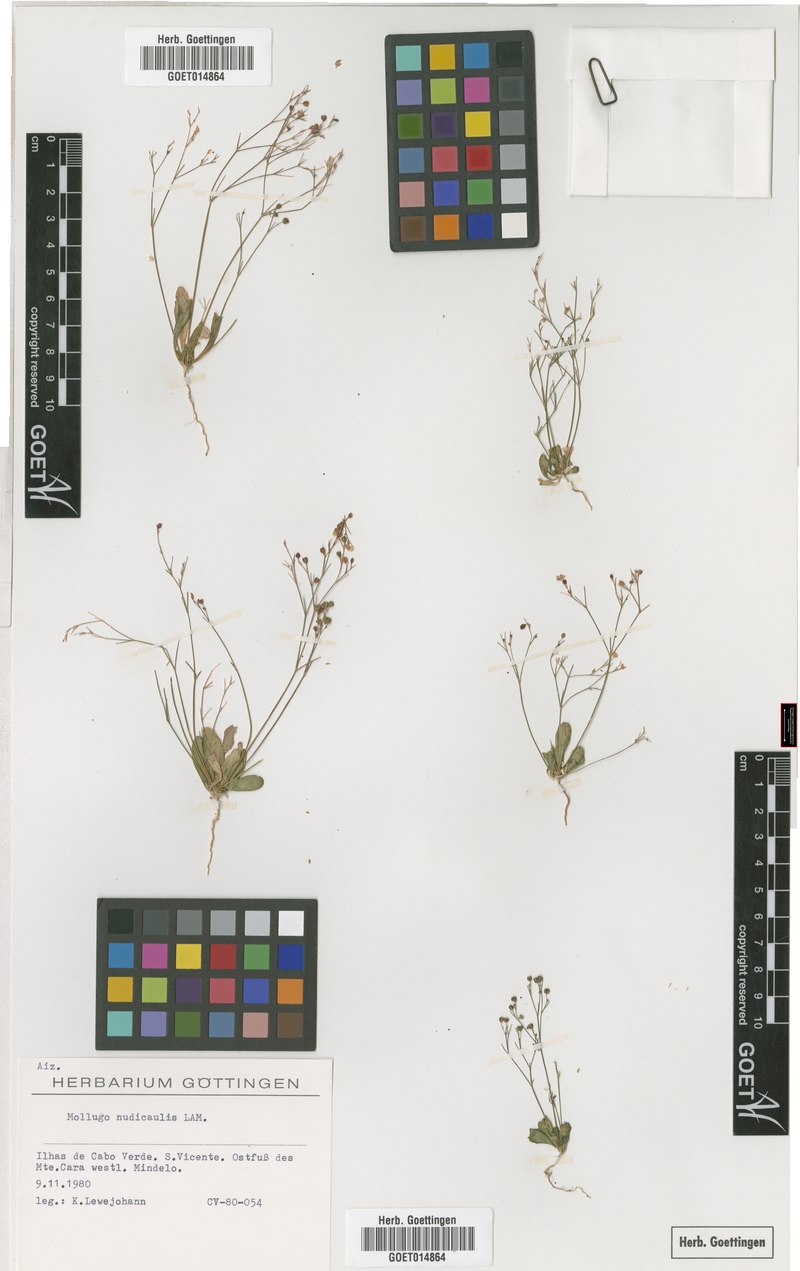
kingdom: Plantae
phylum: Tracheophyta
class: Magnoliopsida
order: Caryophyllales
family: Molluginaceae
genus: Paramollugo
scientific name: Paramollugo nudicaulis
